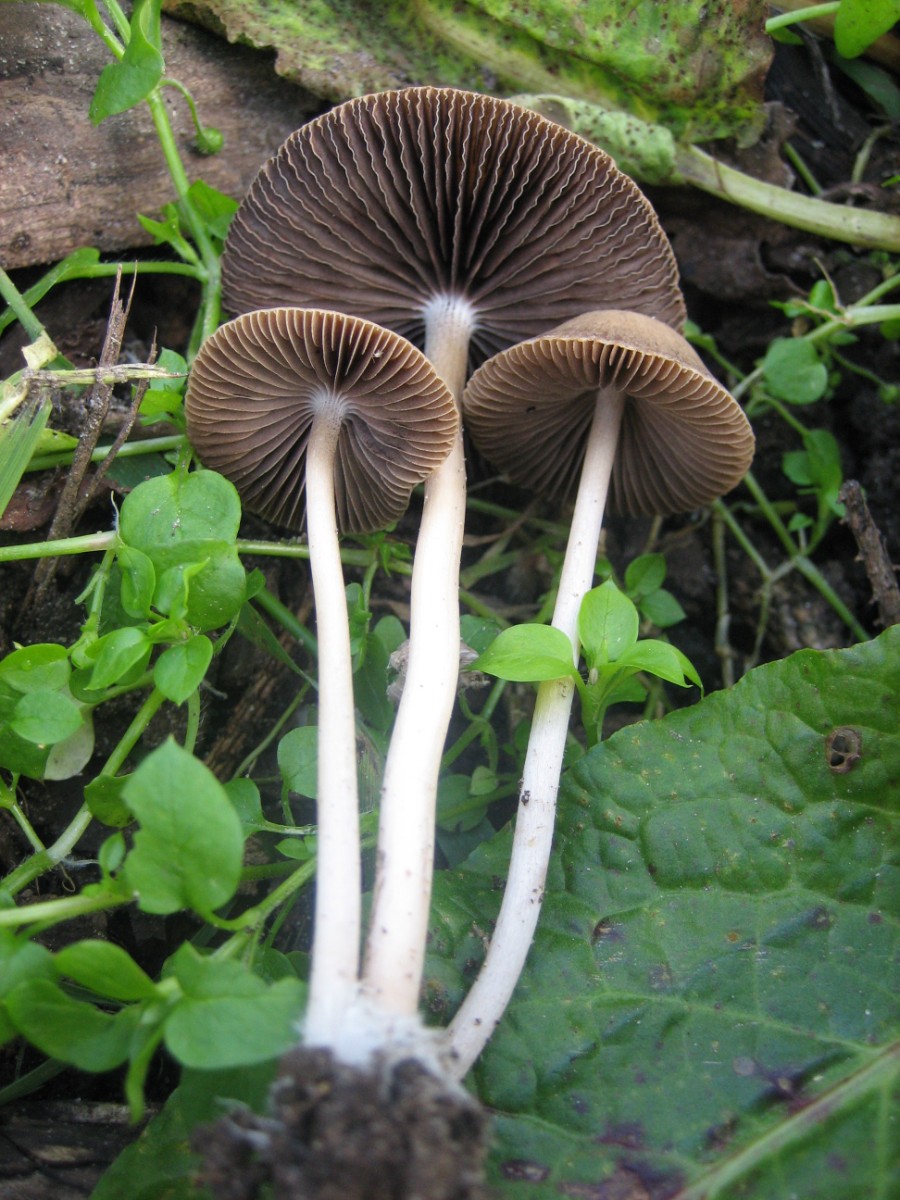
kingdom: Fungi
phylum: Basidiomycota
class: Agaricomycetes
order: Agaricales
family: Psathyrellaceae
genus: Psathyrella
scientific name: Psathyrella
